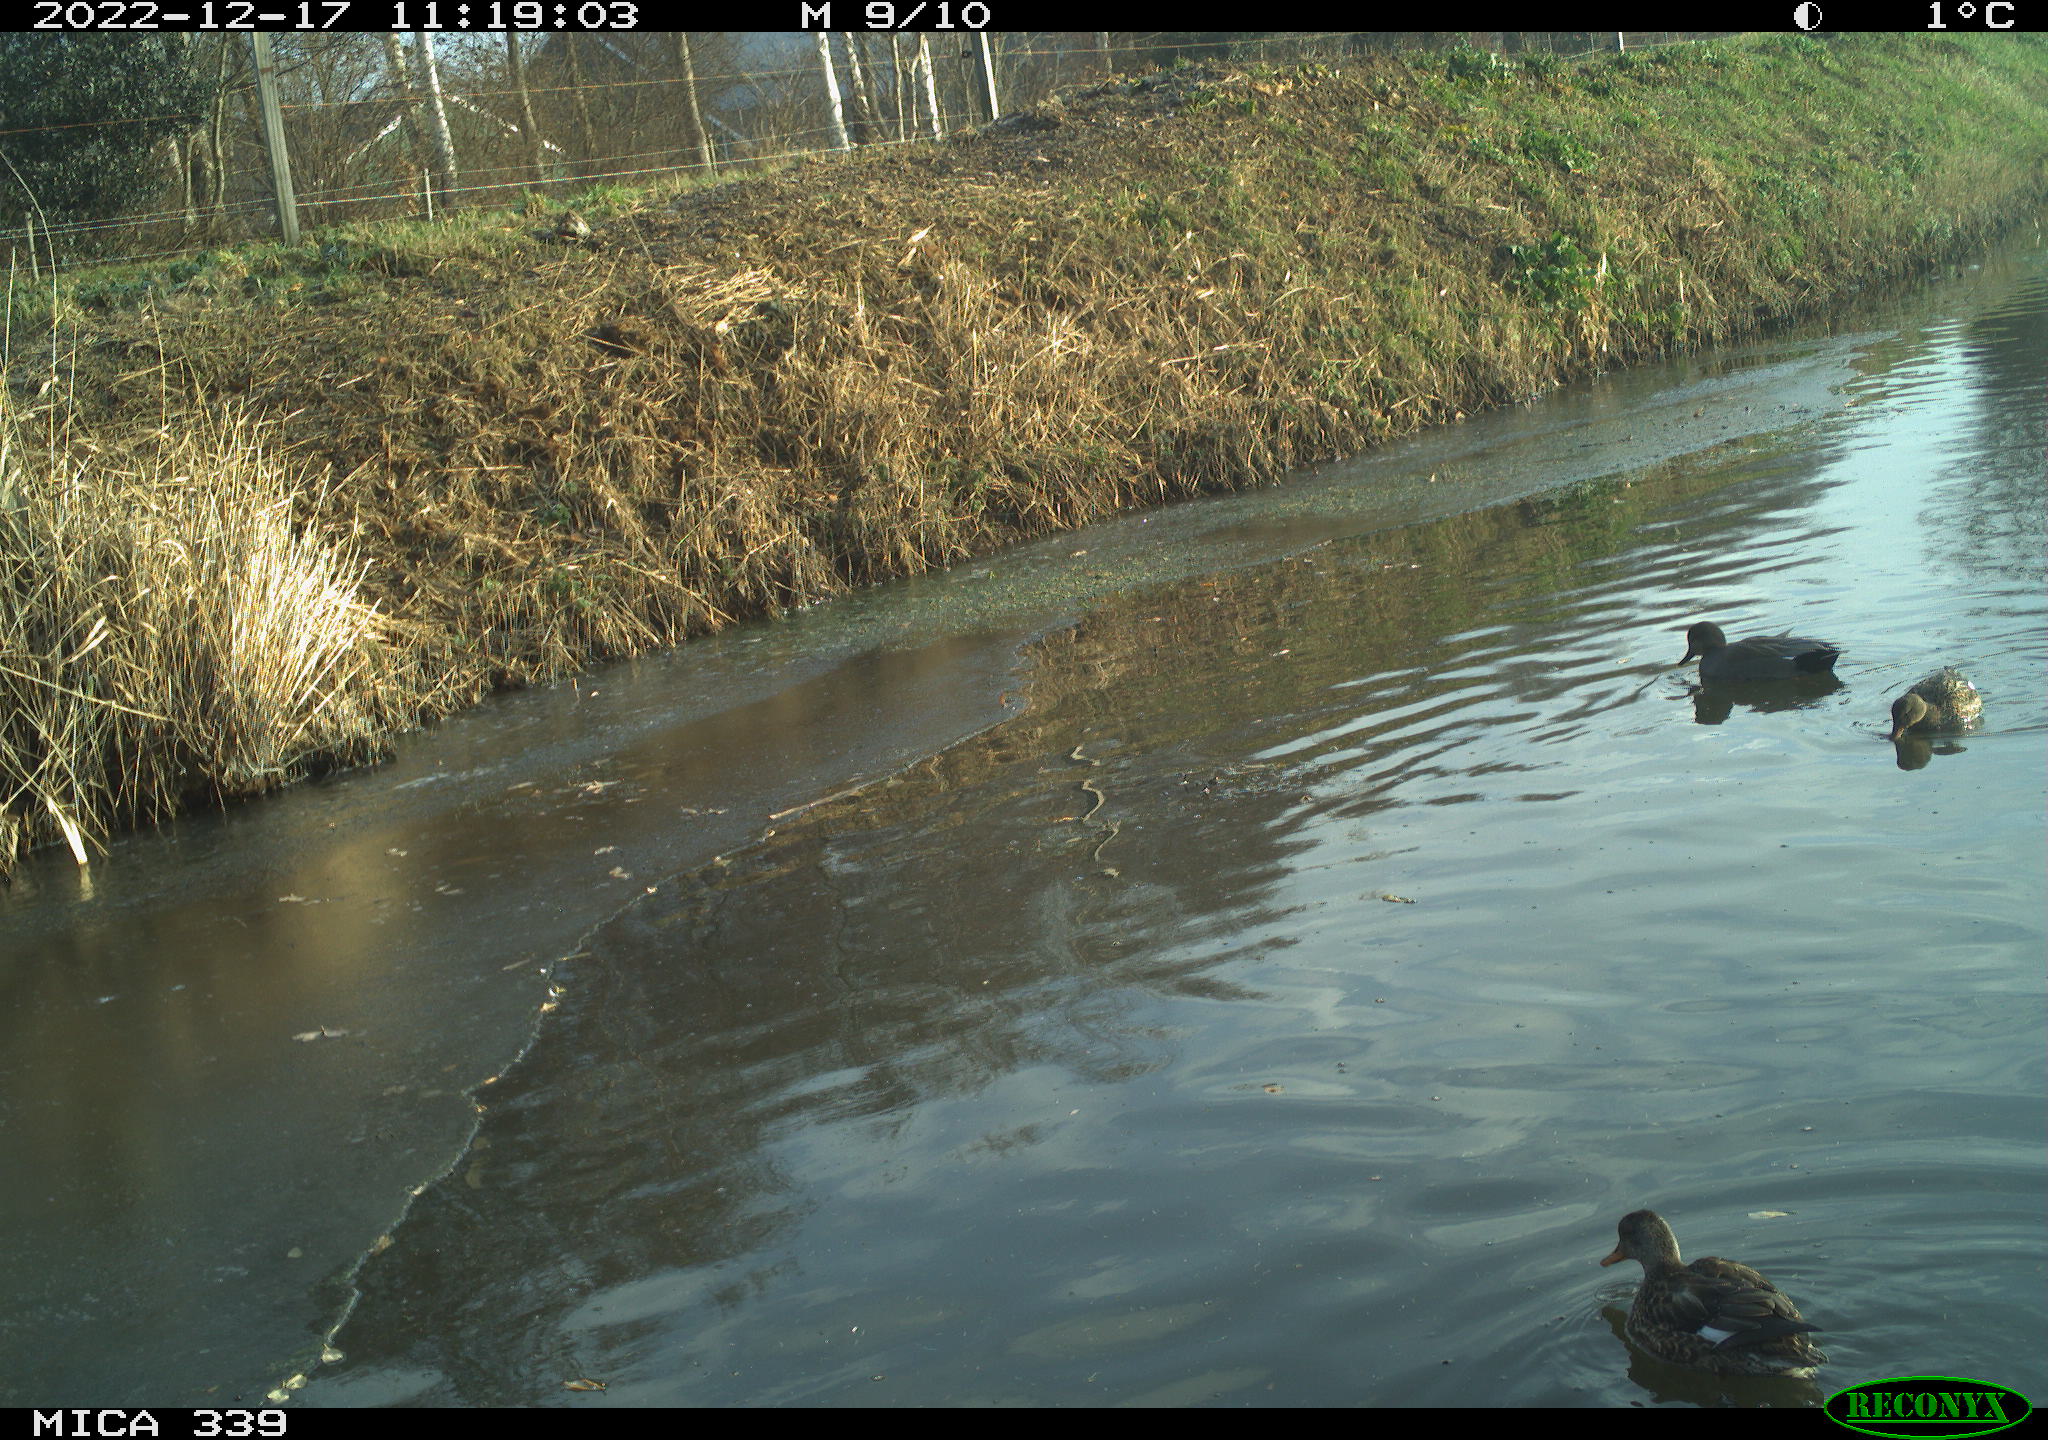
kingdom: Animalia
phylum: Chordata
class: Aves
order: Gruiformes
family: Rallidae
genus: Fulica
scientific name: Fulica atra
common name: Eurasian coot
